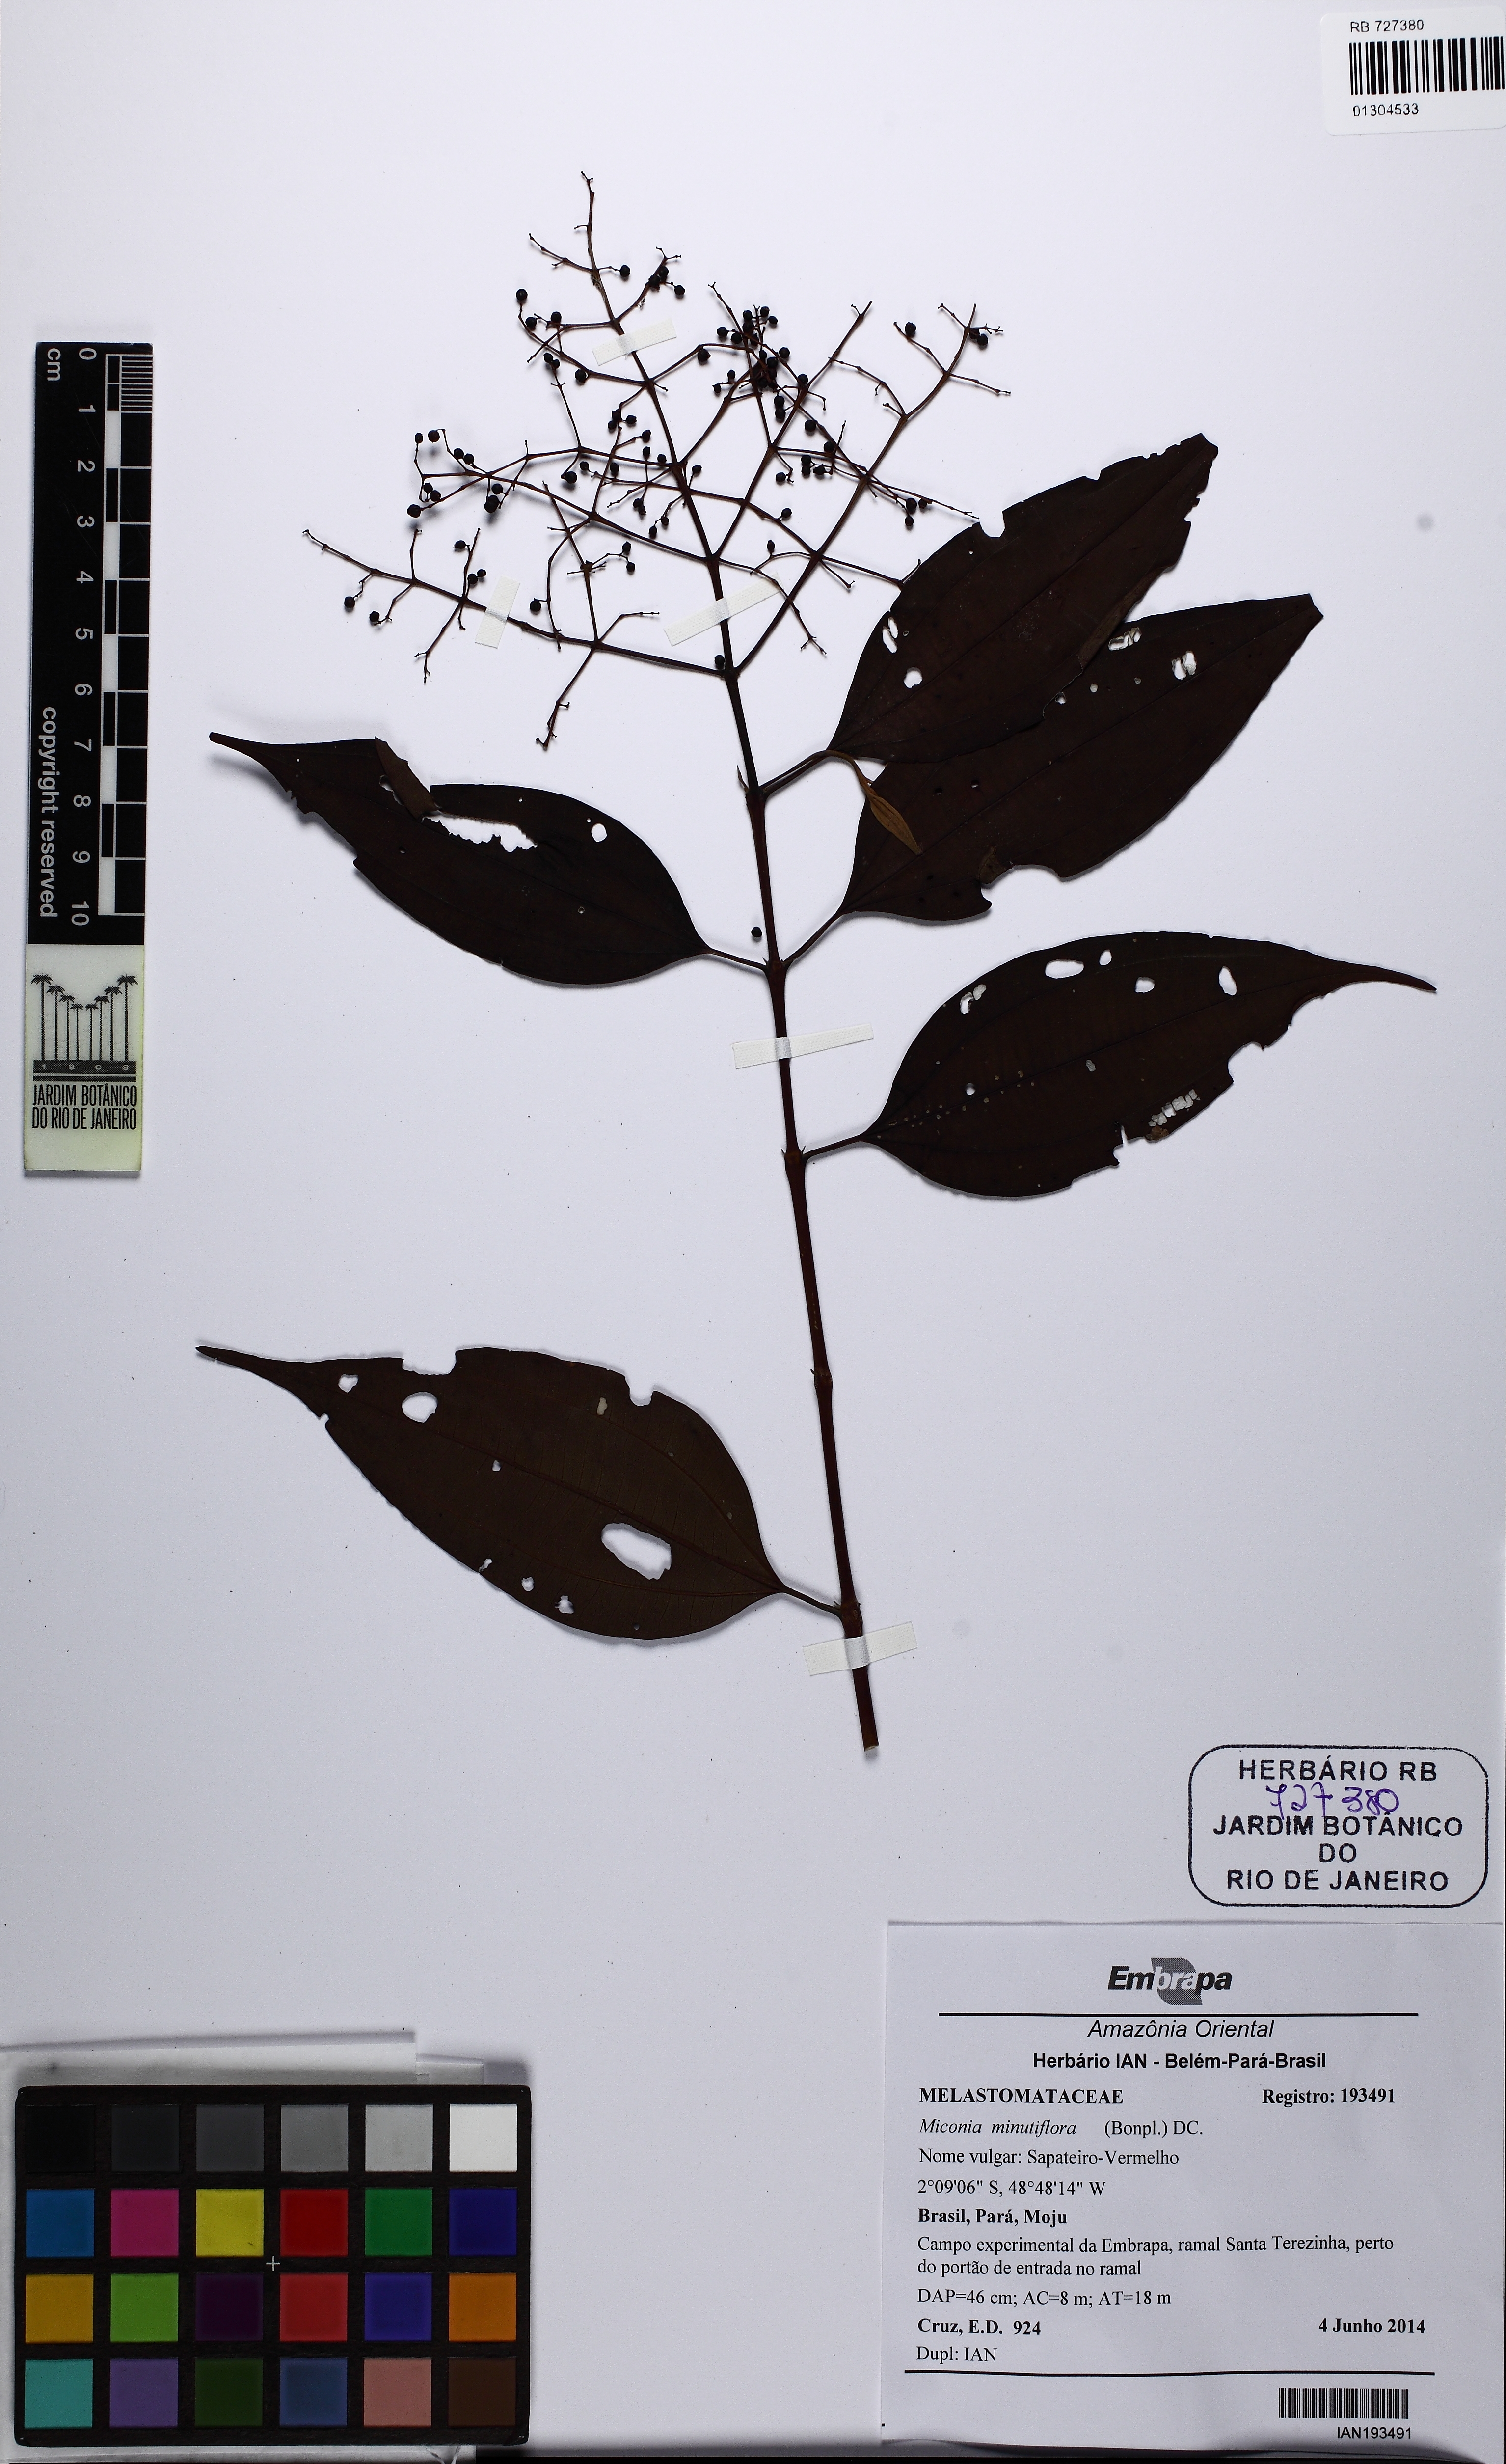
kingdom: Plantae
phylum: Tracheophyta
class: Magnoliopsida
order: Myrtales
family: Melastomataceae
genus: Miconia
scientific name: Miconia minutiflora
